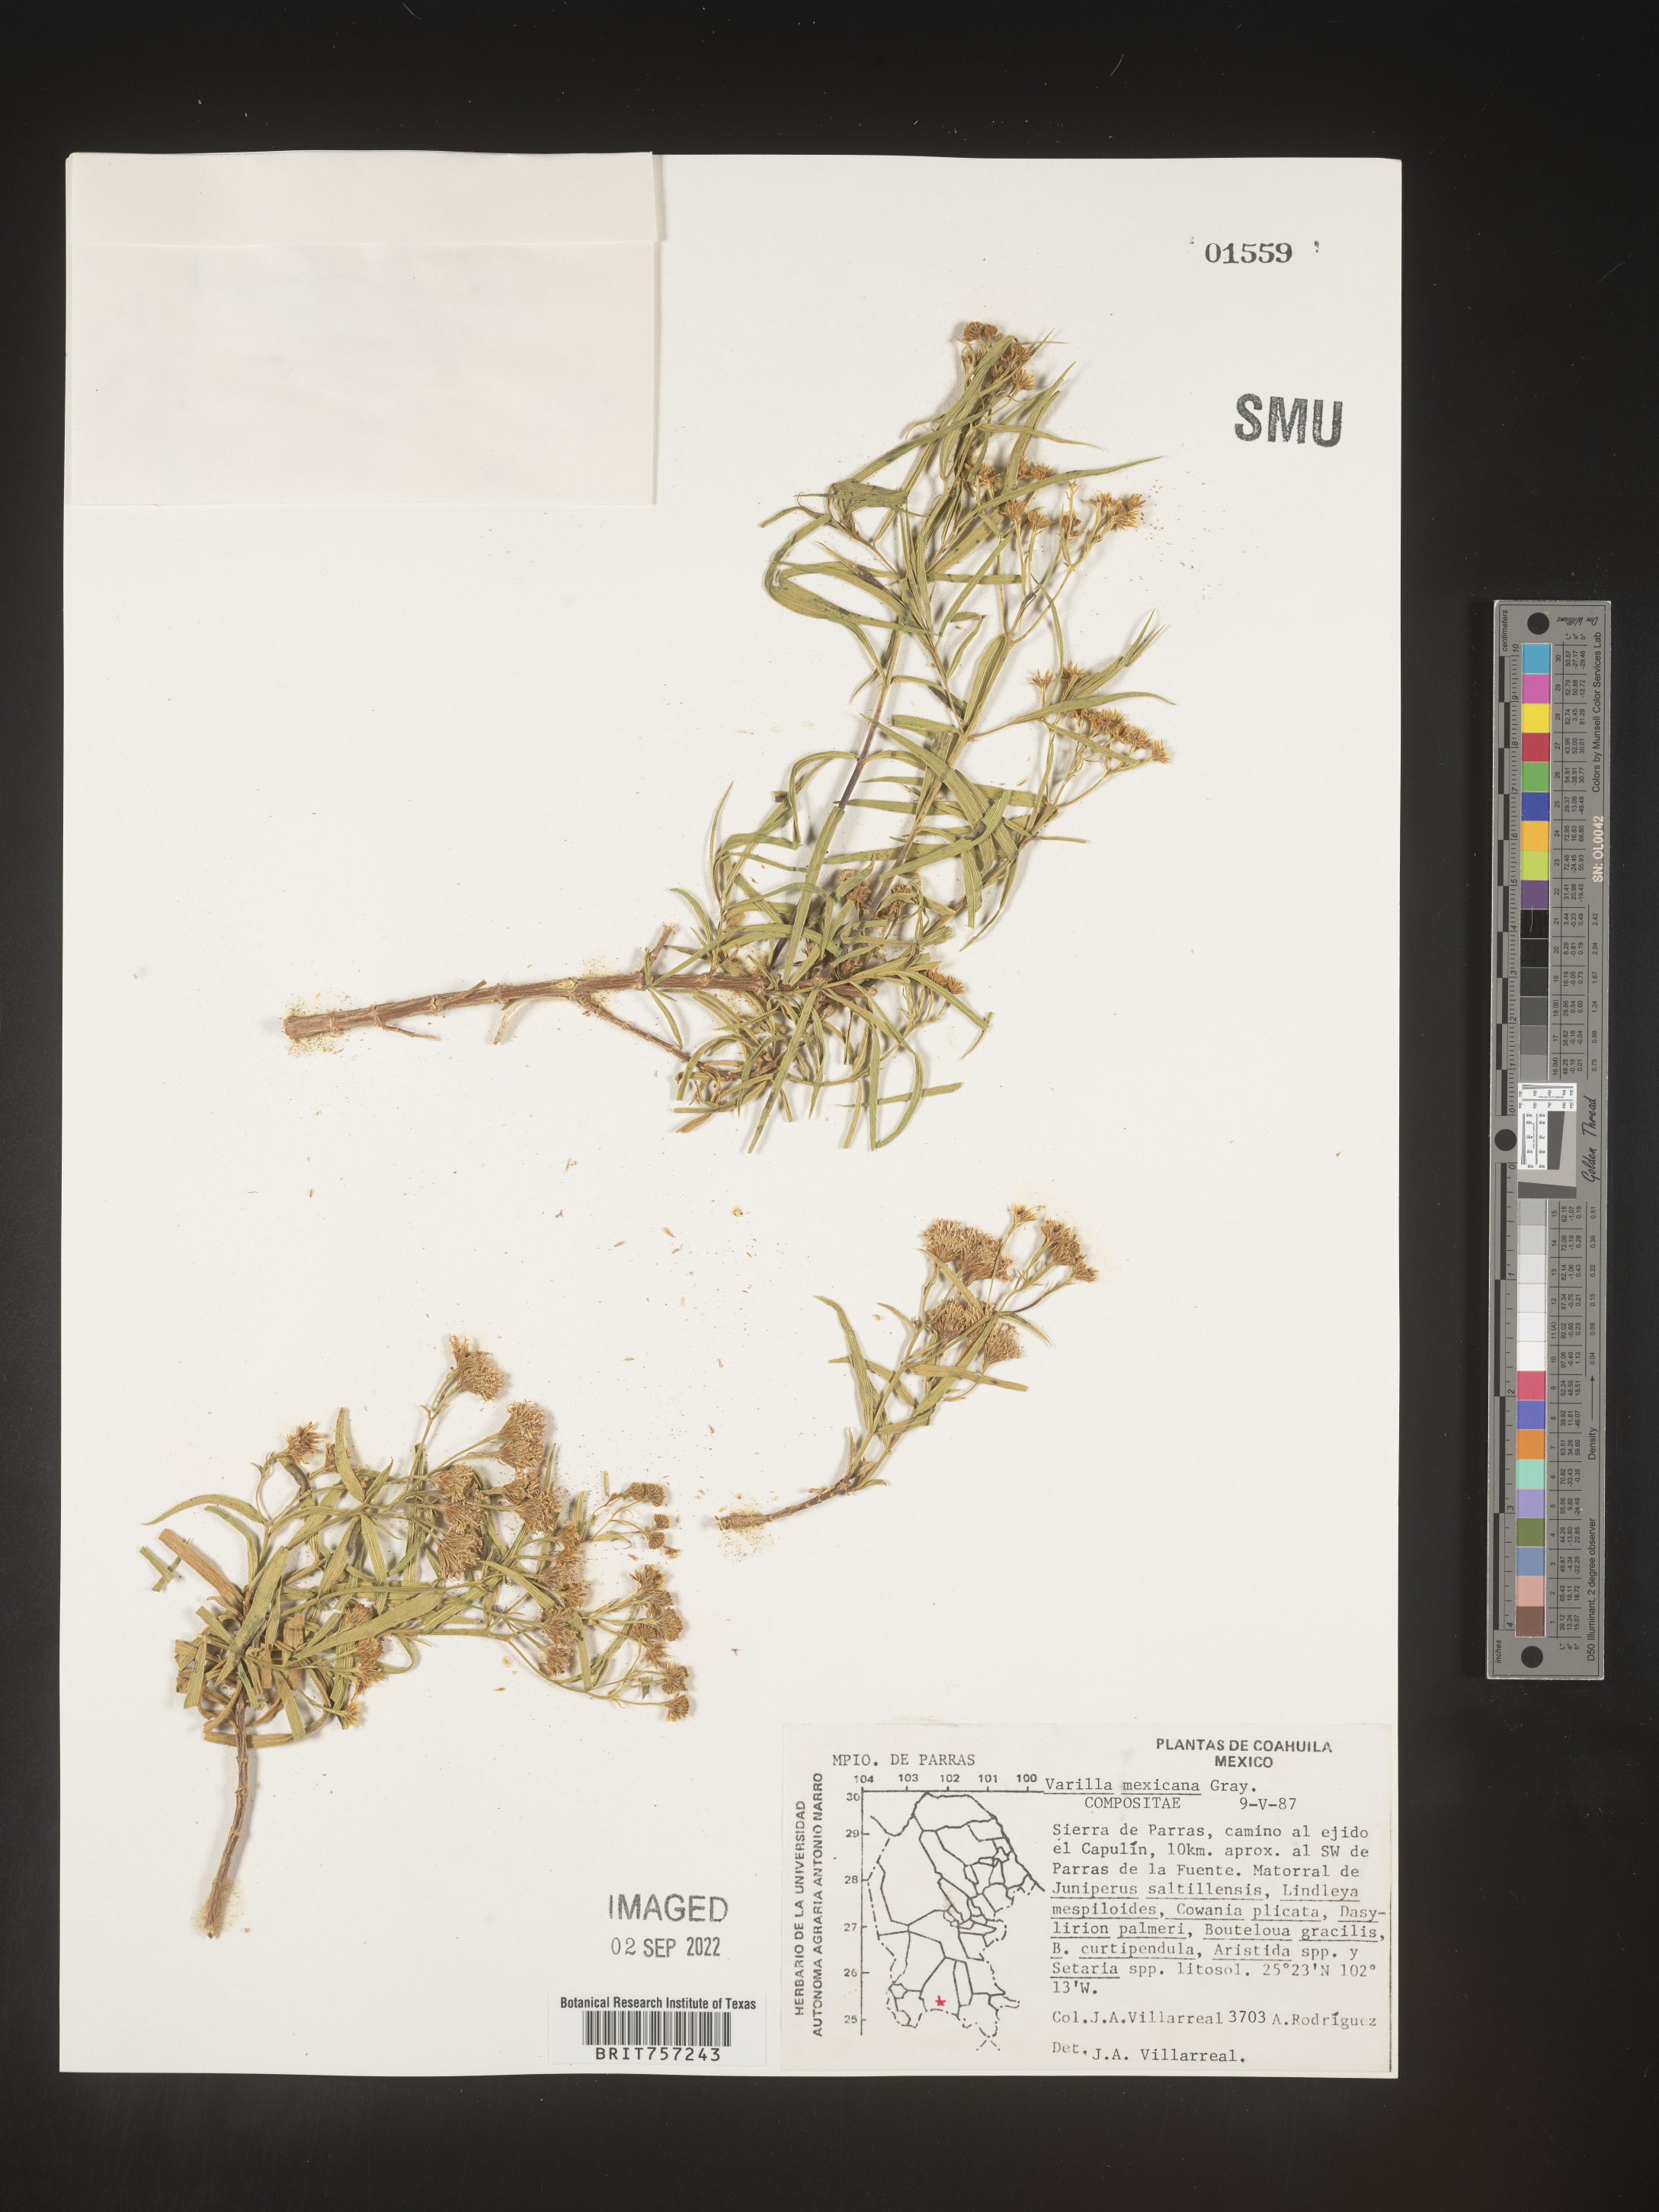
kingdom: Plantae
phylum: Tracheophyta
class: Magnoliopsida
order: Asterales
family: Asteraceae
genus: Varilla
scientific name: Varilla
